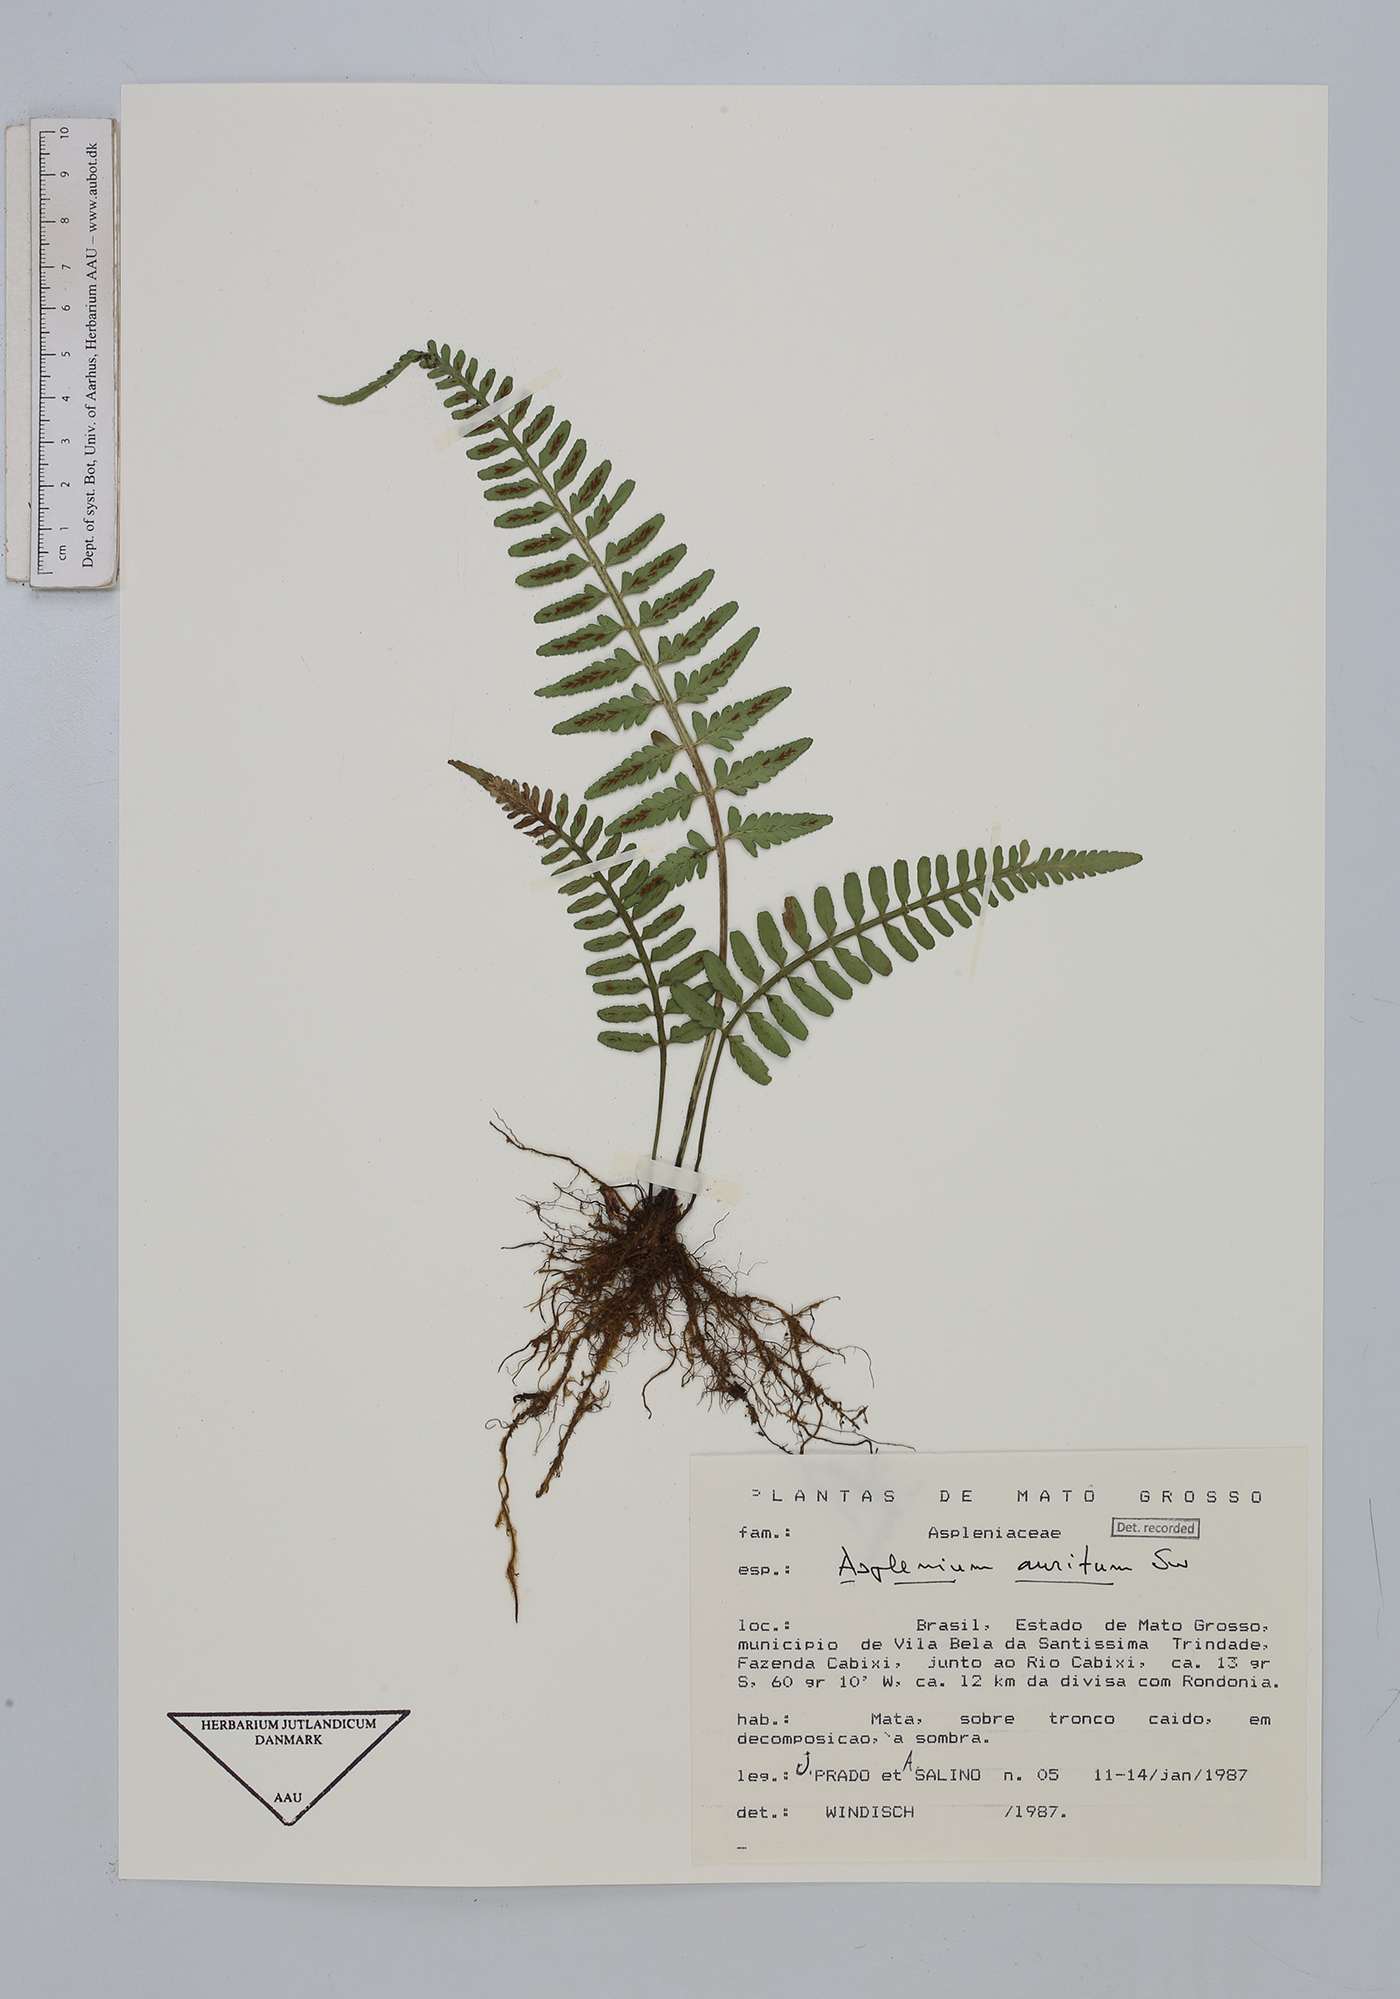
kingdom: Plantae
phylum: Tracheophyta
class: Polypodiopsida
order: Polypodiales
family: Aspleniaceae
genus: Asplenium
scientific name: Asplenium auritum
